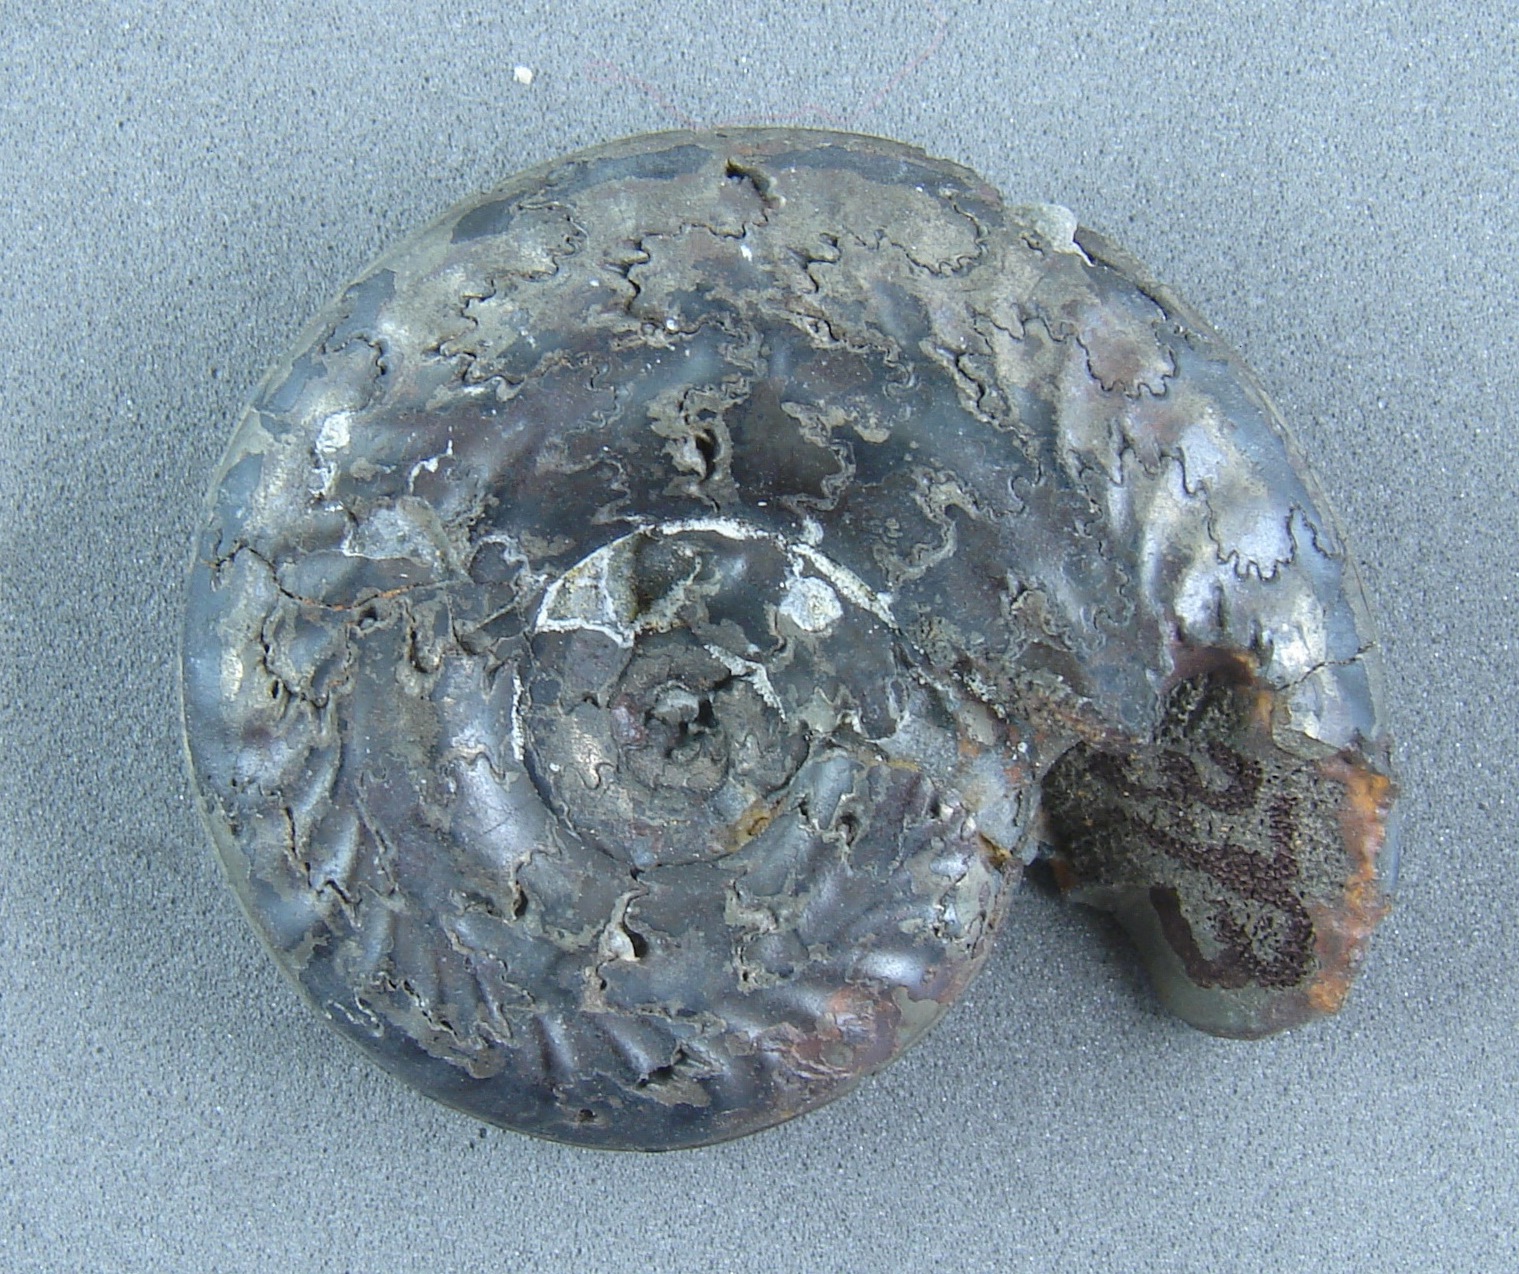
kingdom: Animalia
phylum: Mollusca
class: Cephalopoda
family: Hildoceratidae
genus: Hildoceras
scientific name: Hildoceras bifrons
